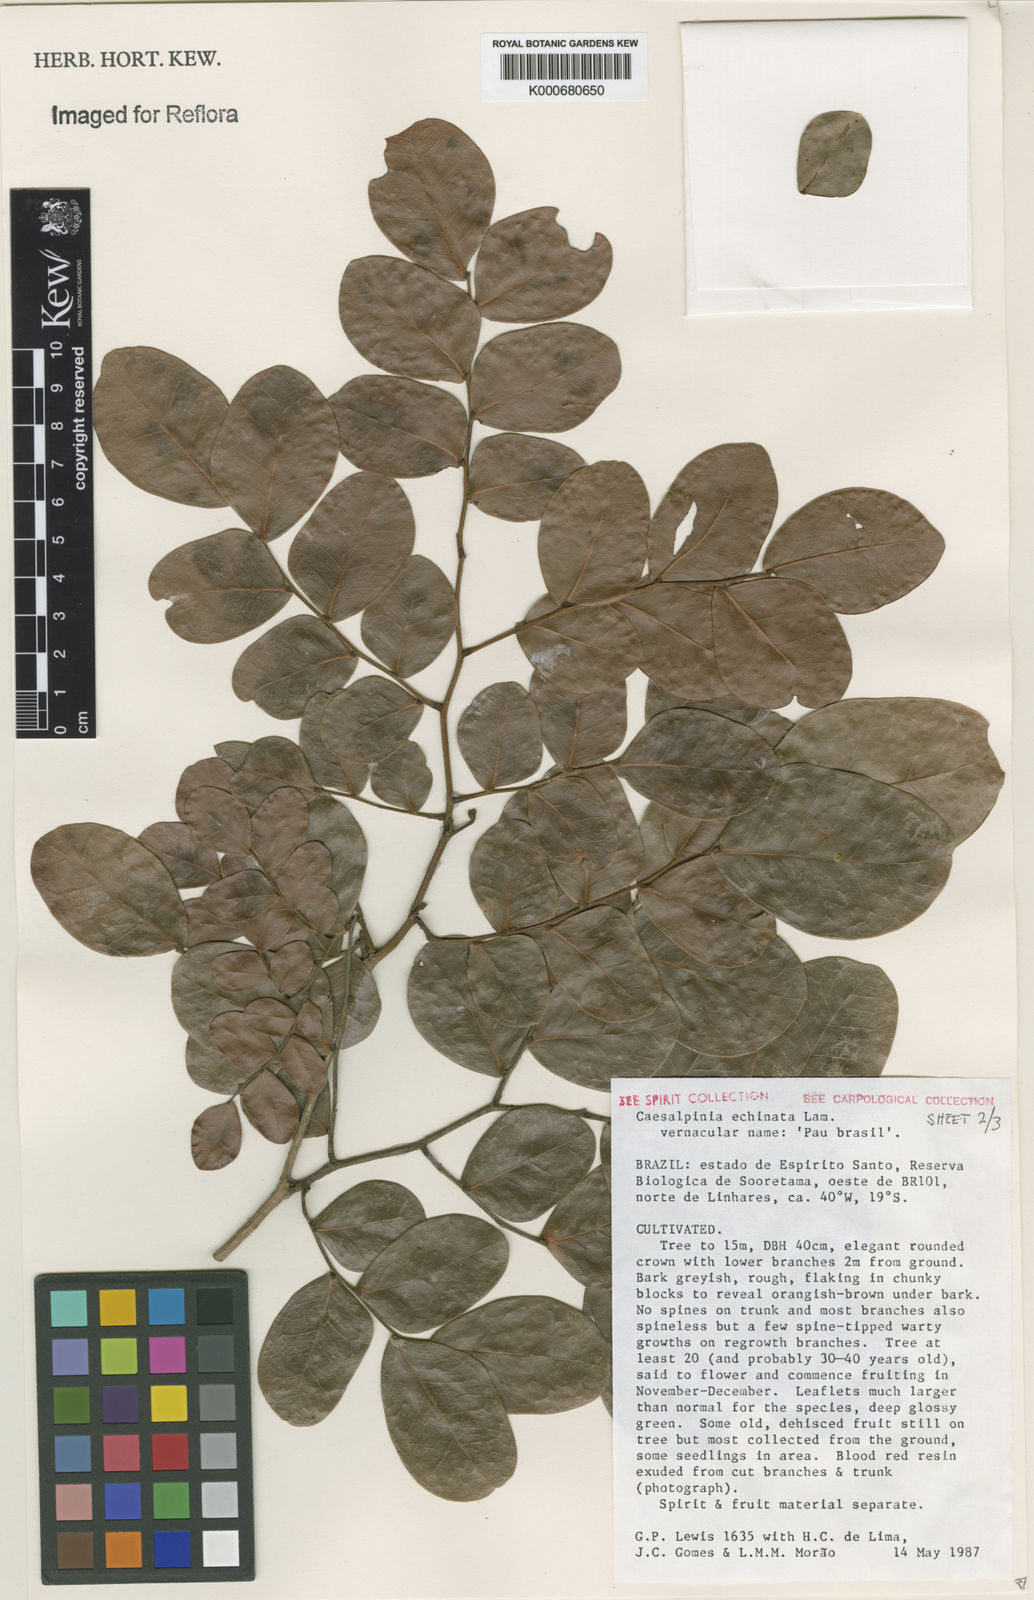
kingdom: Plantae
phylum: Tracheophyta
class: Magnoliopsida
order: Fabales
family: Fabaceae
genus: Paubrasilia
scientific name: Paubrasilia echinata
